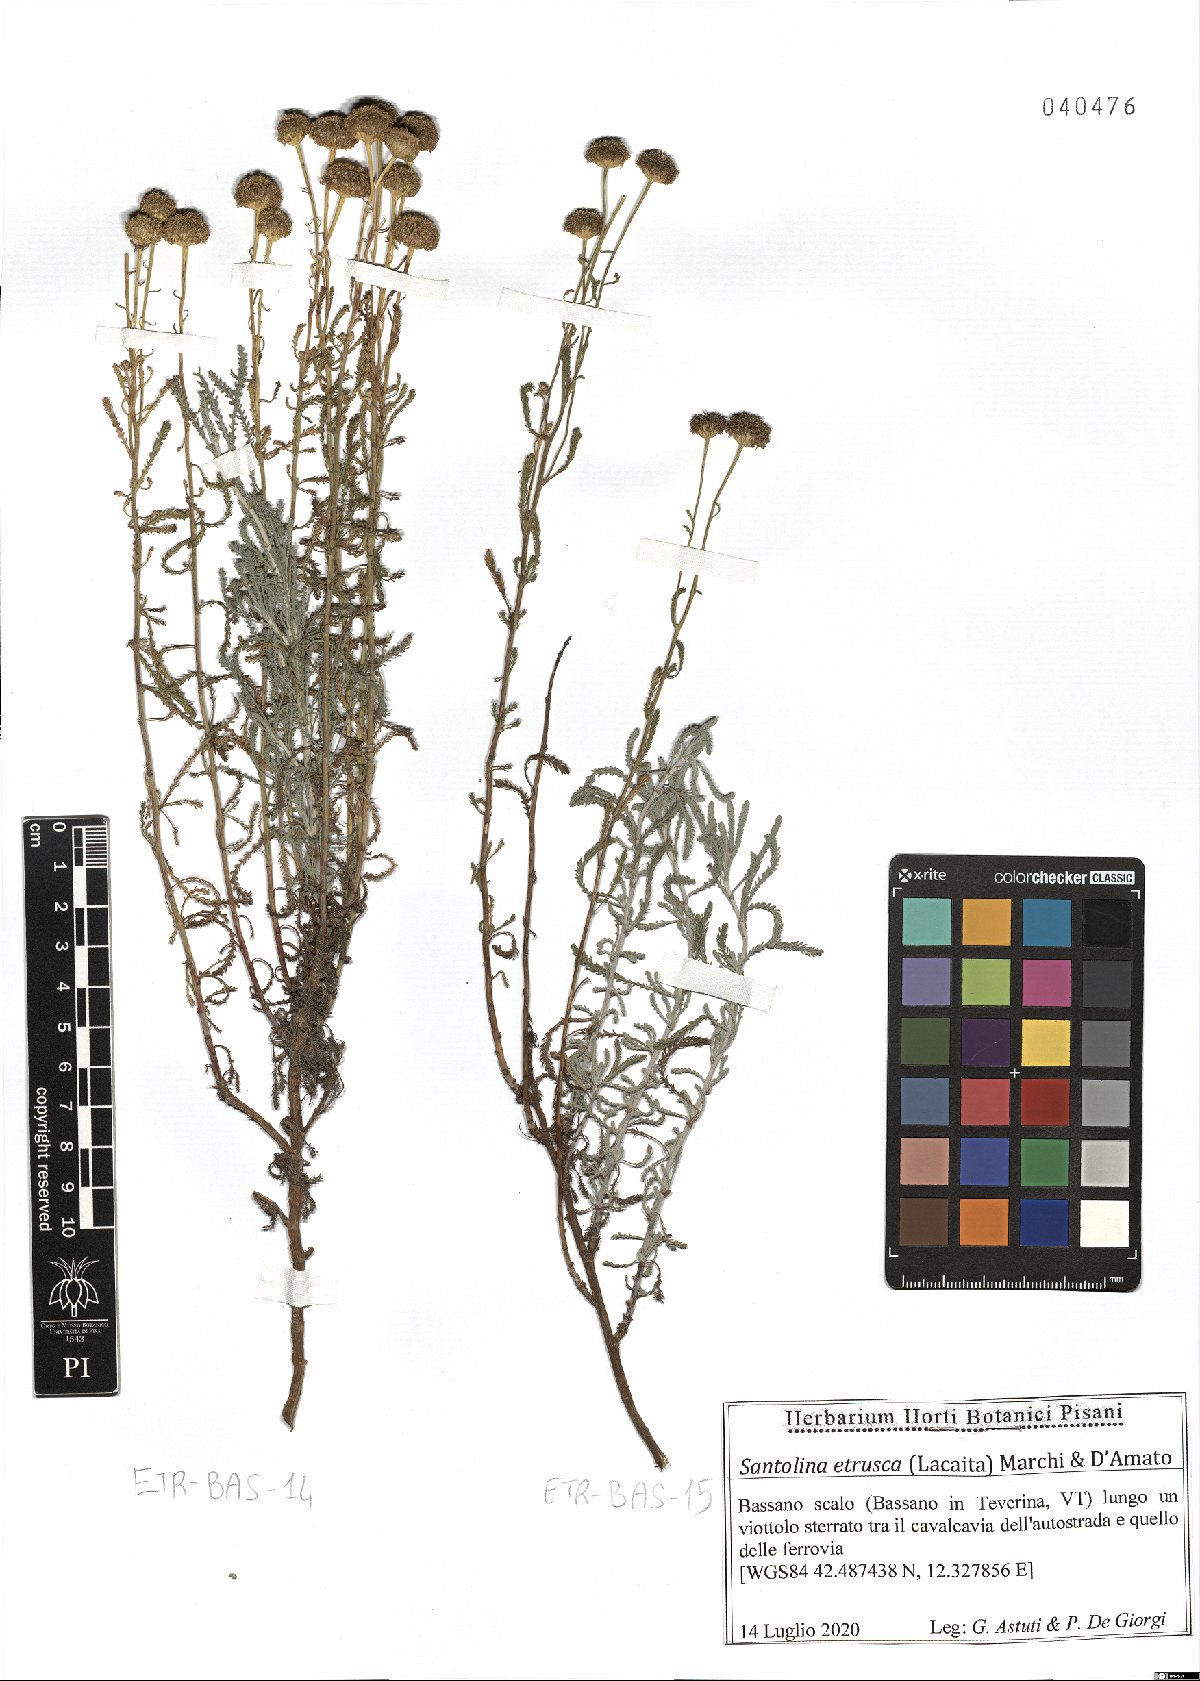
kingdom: Plantae
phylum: Tracheophyta
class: Magnoliopsida
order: Asterales
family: Asteraceae
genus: Santolina
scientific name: Santolina etrusca
